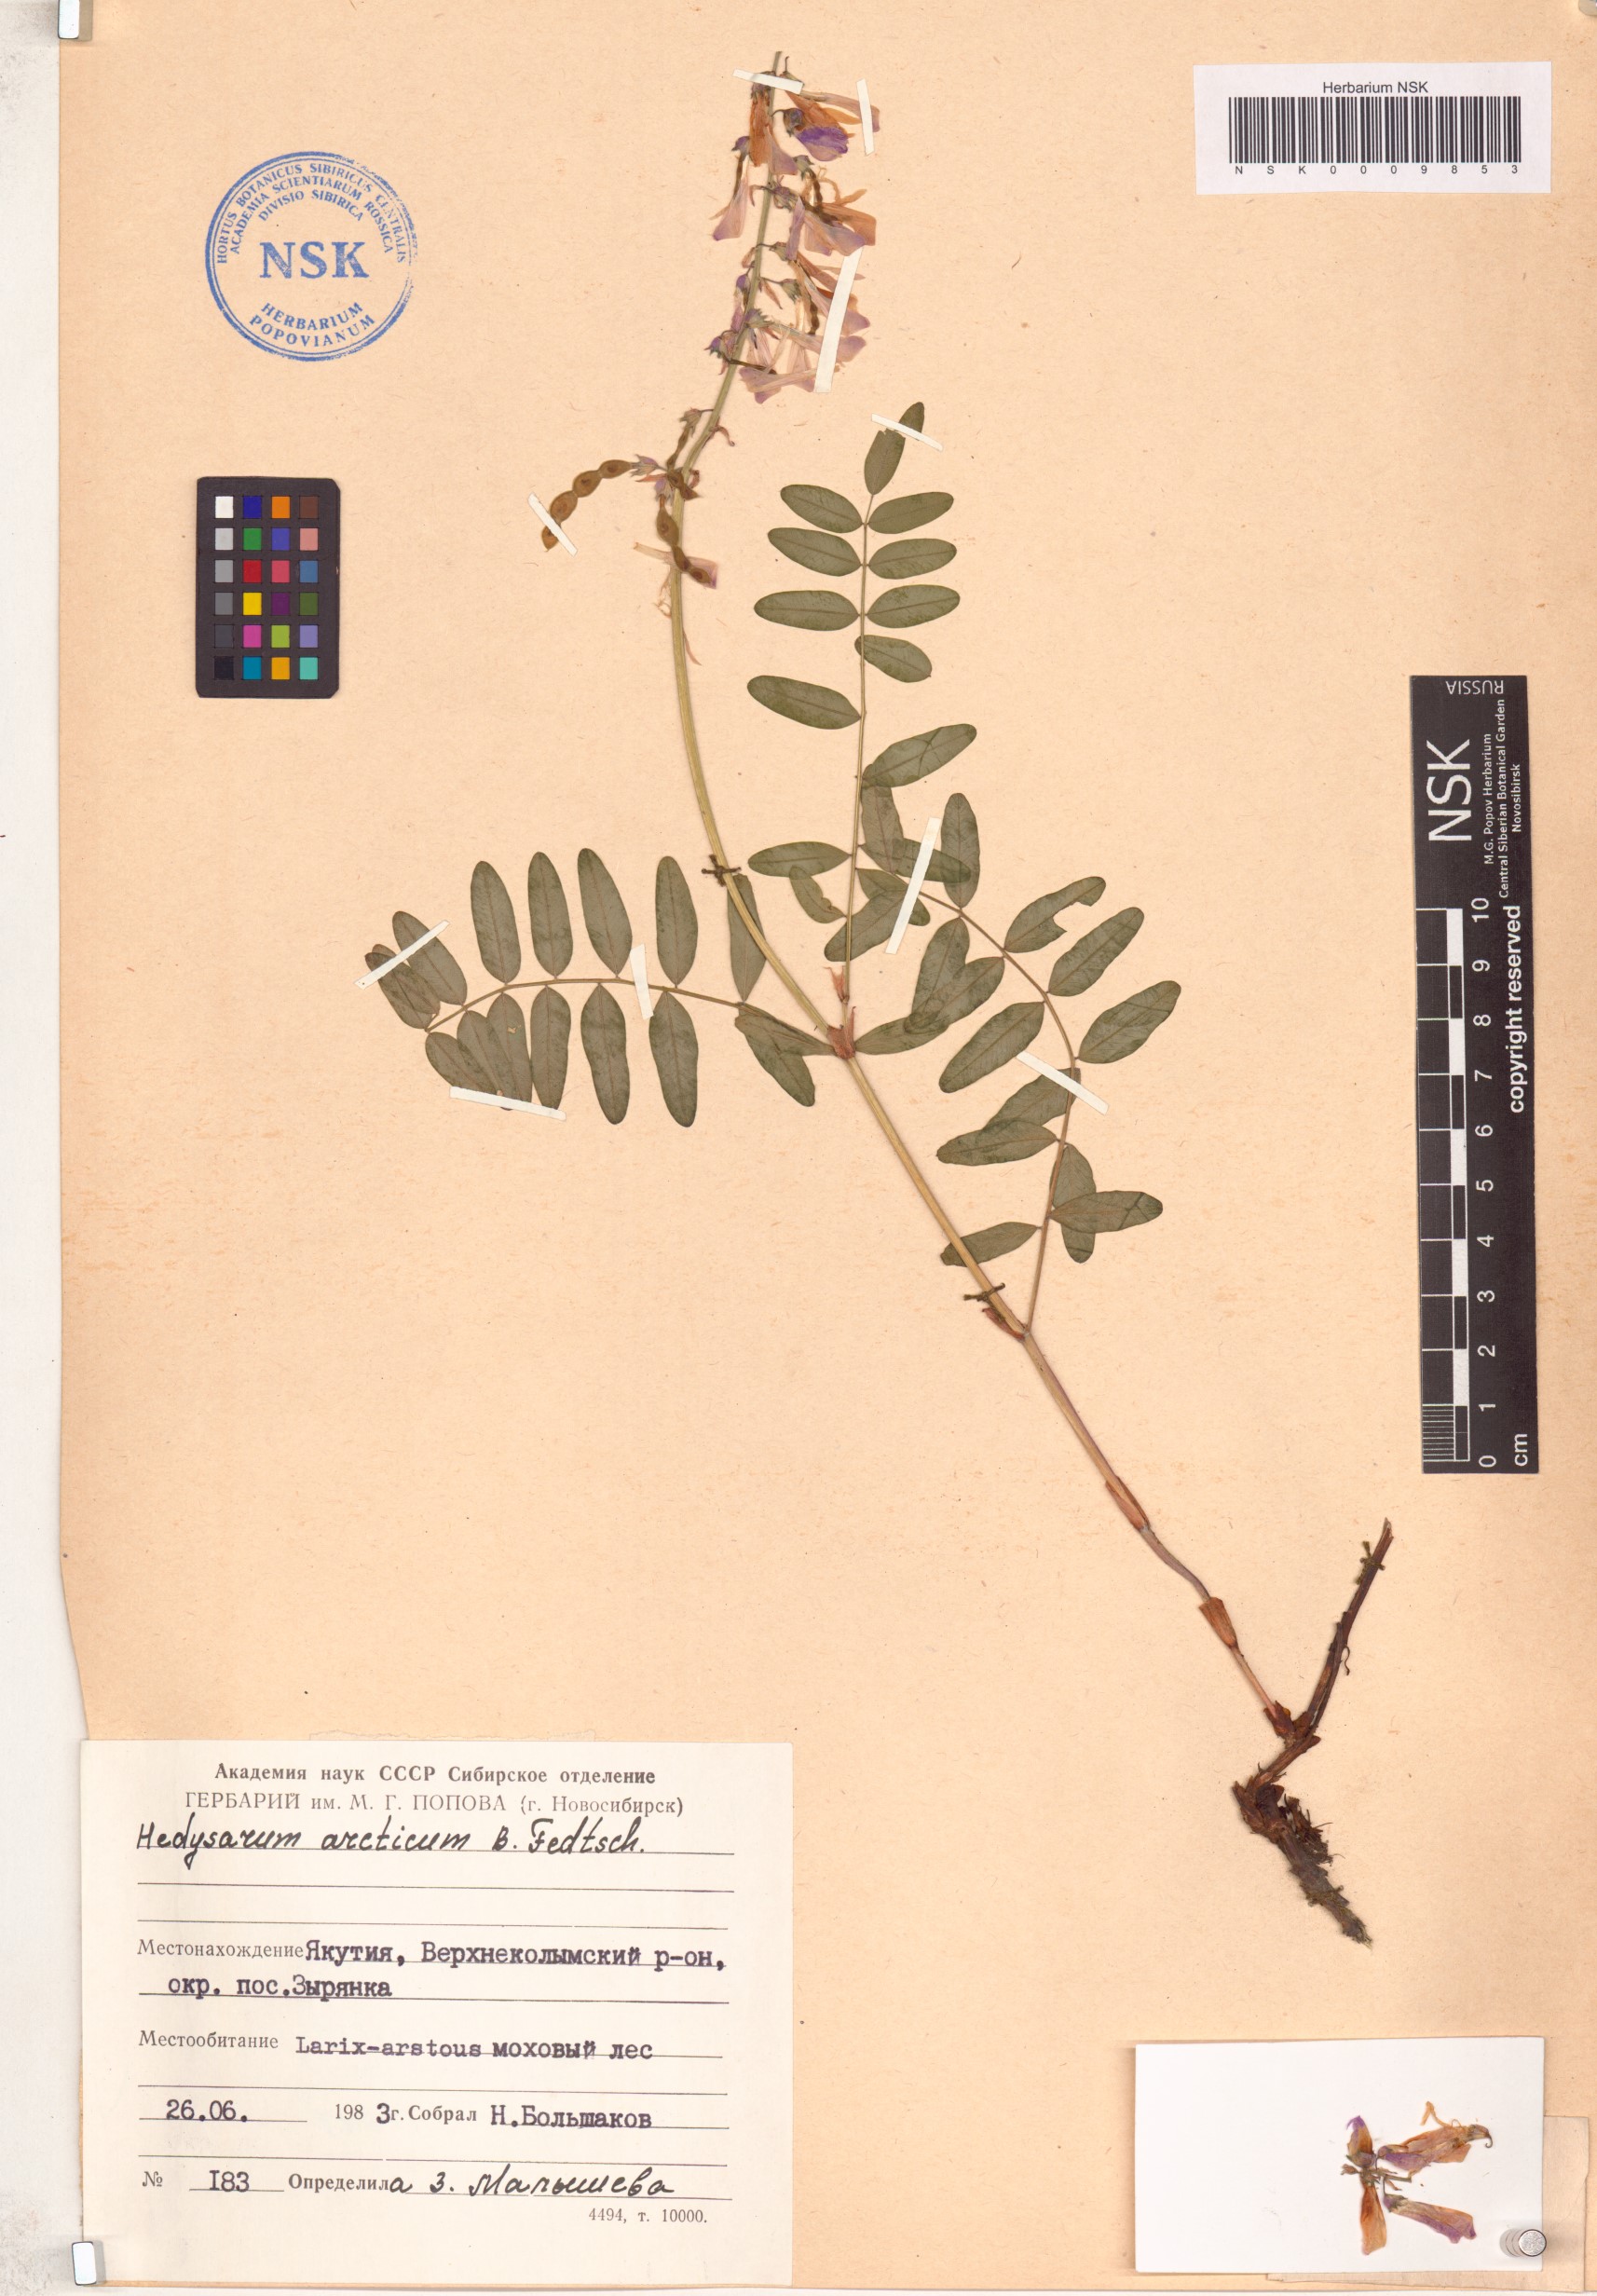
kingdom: Plantae
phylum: Tracheophyta
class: Magnoliopsida
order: Fabales
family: Fabaceae
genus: Hedysarum
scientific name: Hedysarum hedysaroides
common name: Alpine french-honeysuckle
